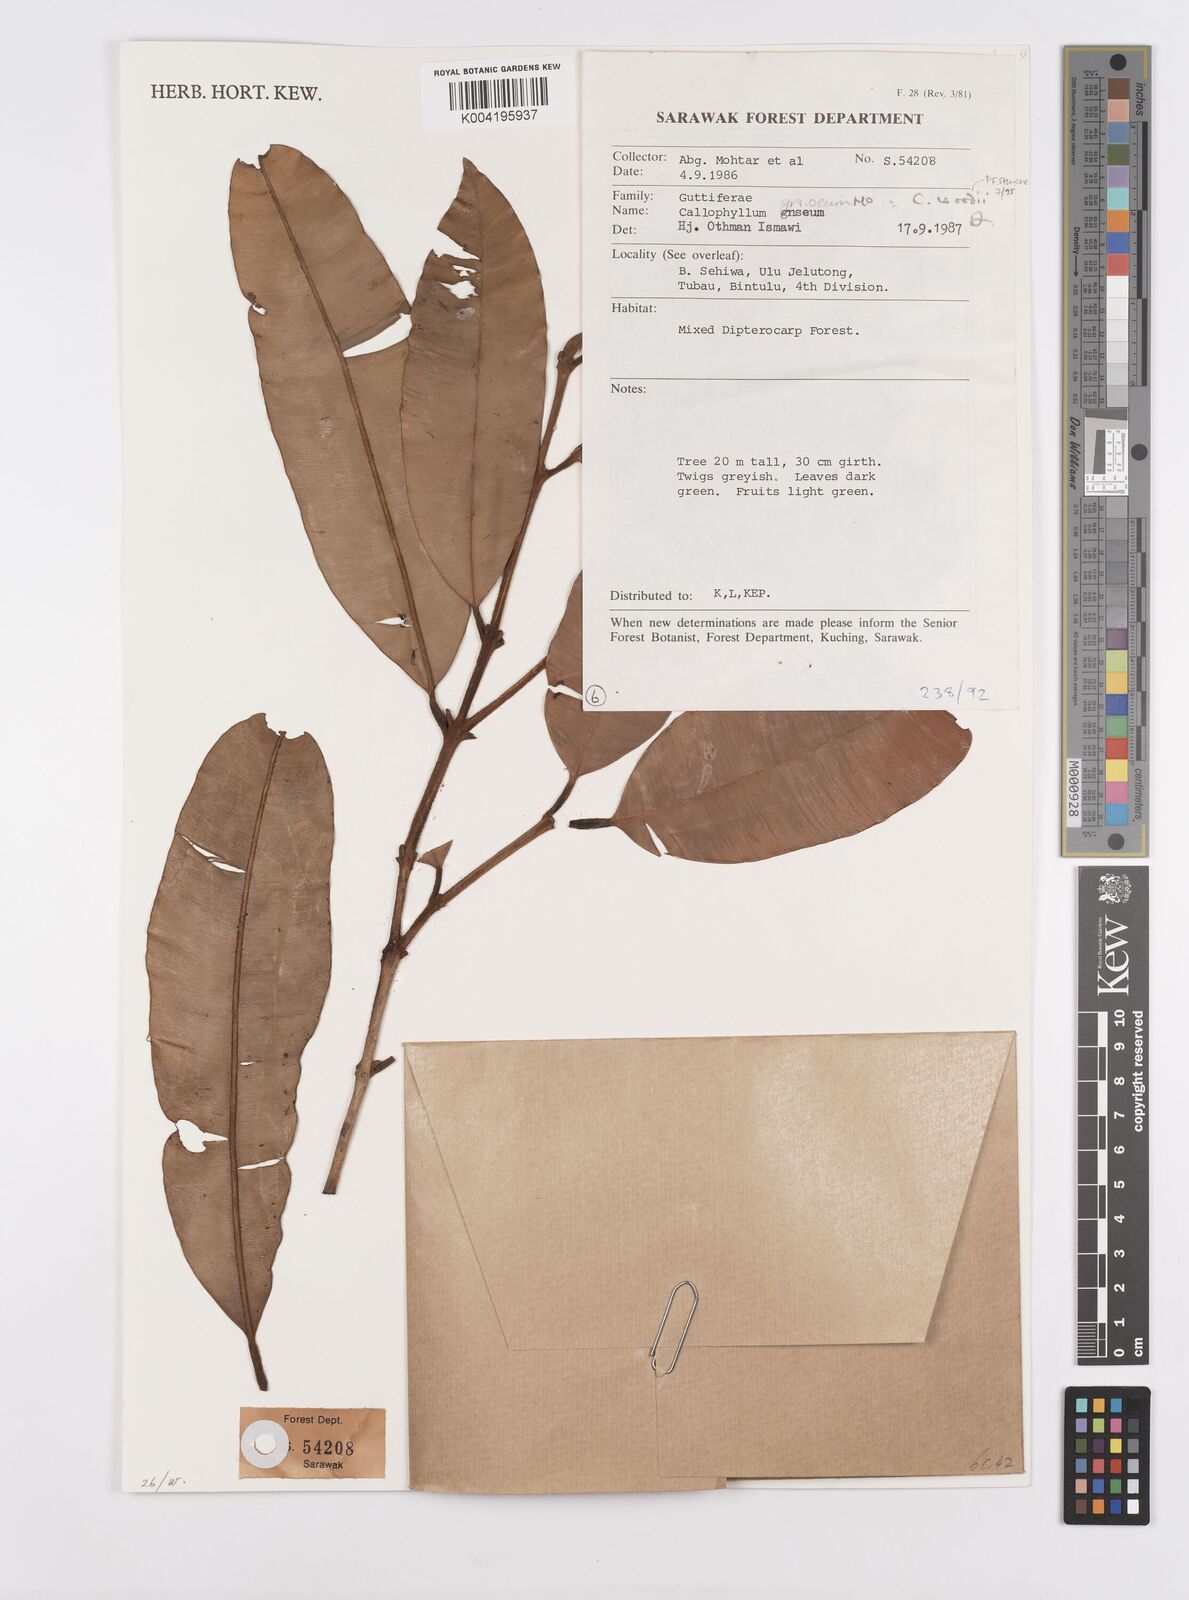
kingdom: Plantae
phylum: Tracheophyta
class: Magnoliopsida
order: Malpighiales
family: Calophyllaceae
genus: Calophyllum
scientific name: Calophyllum woodii
